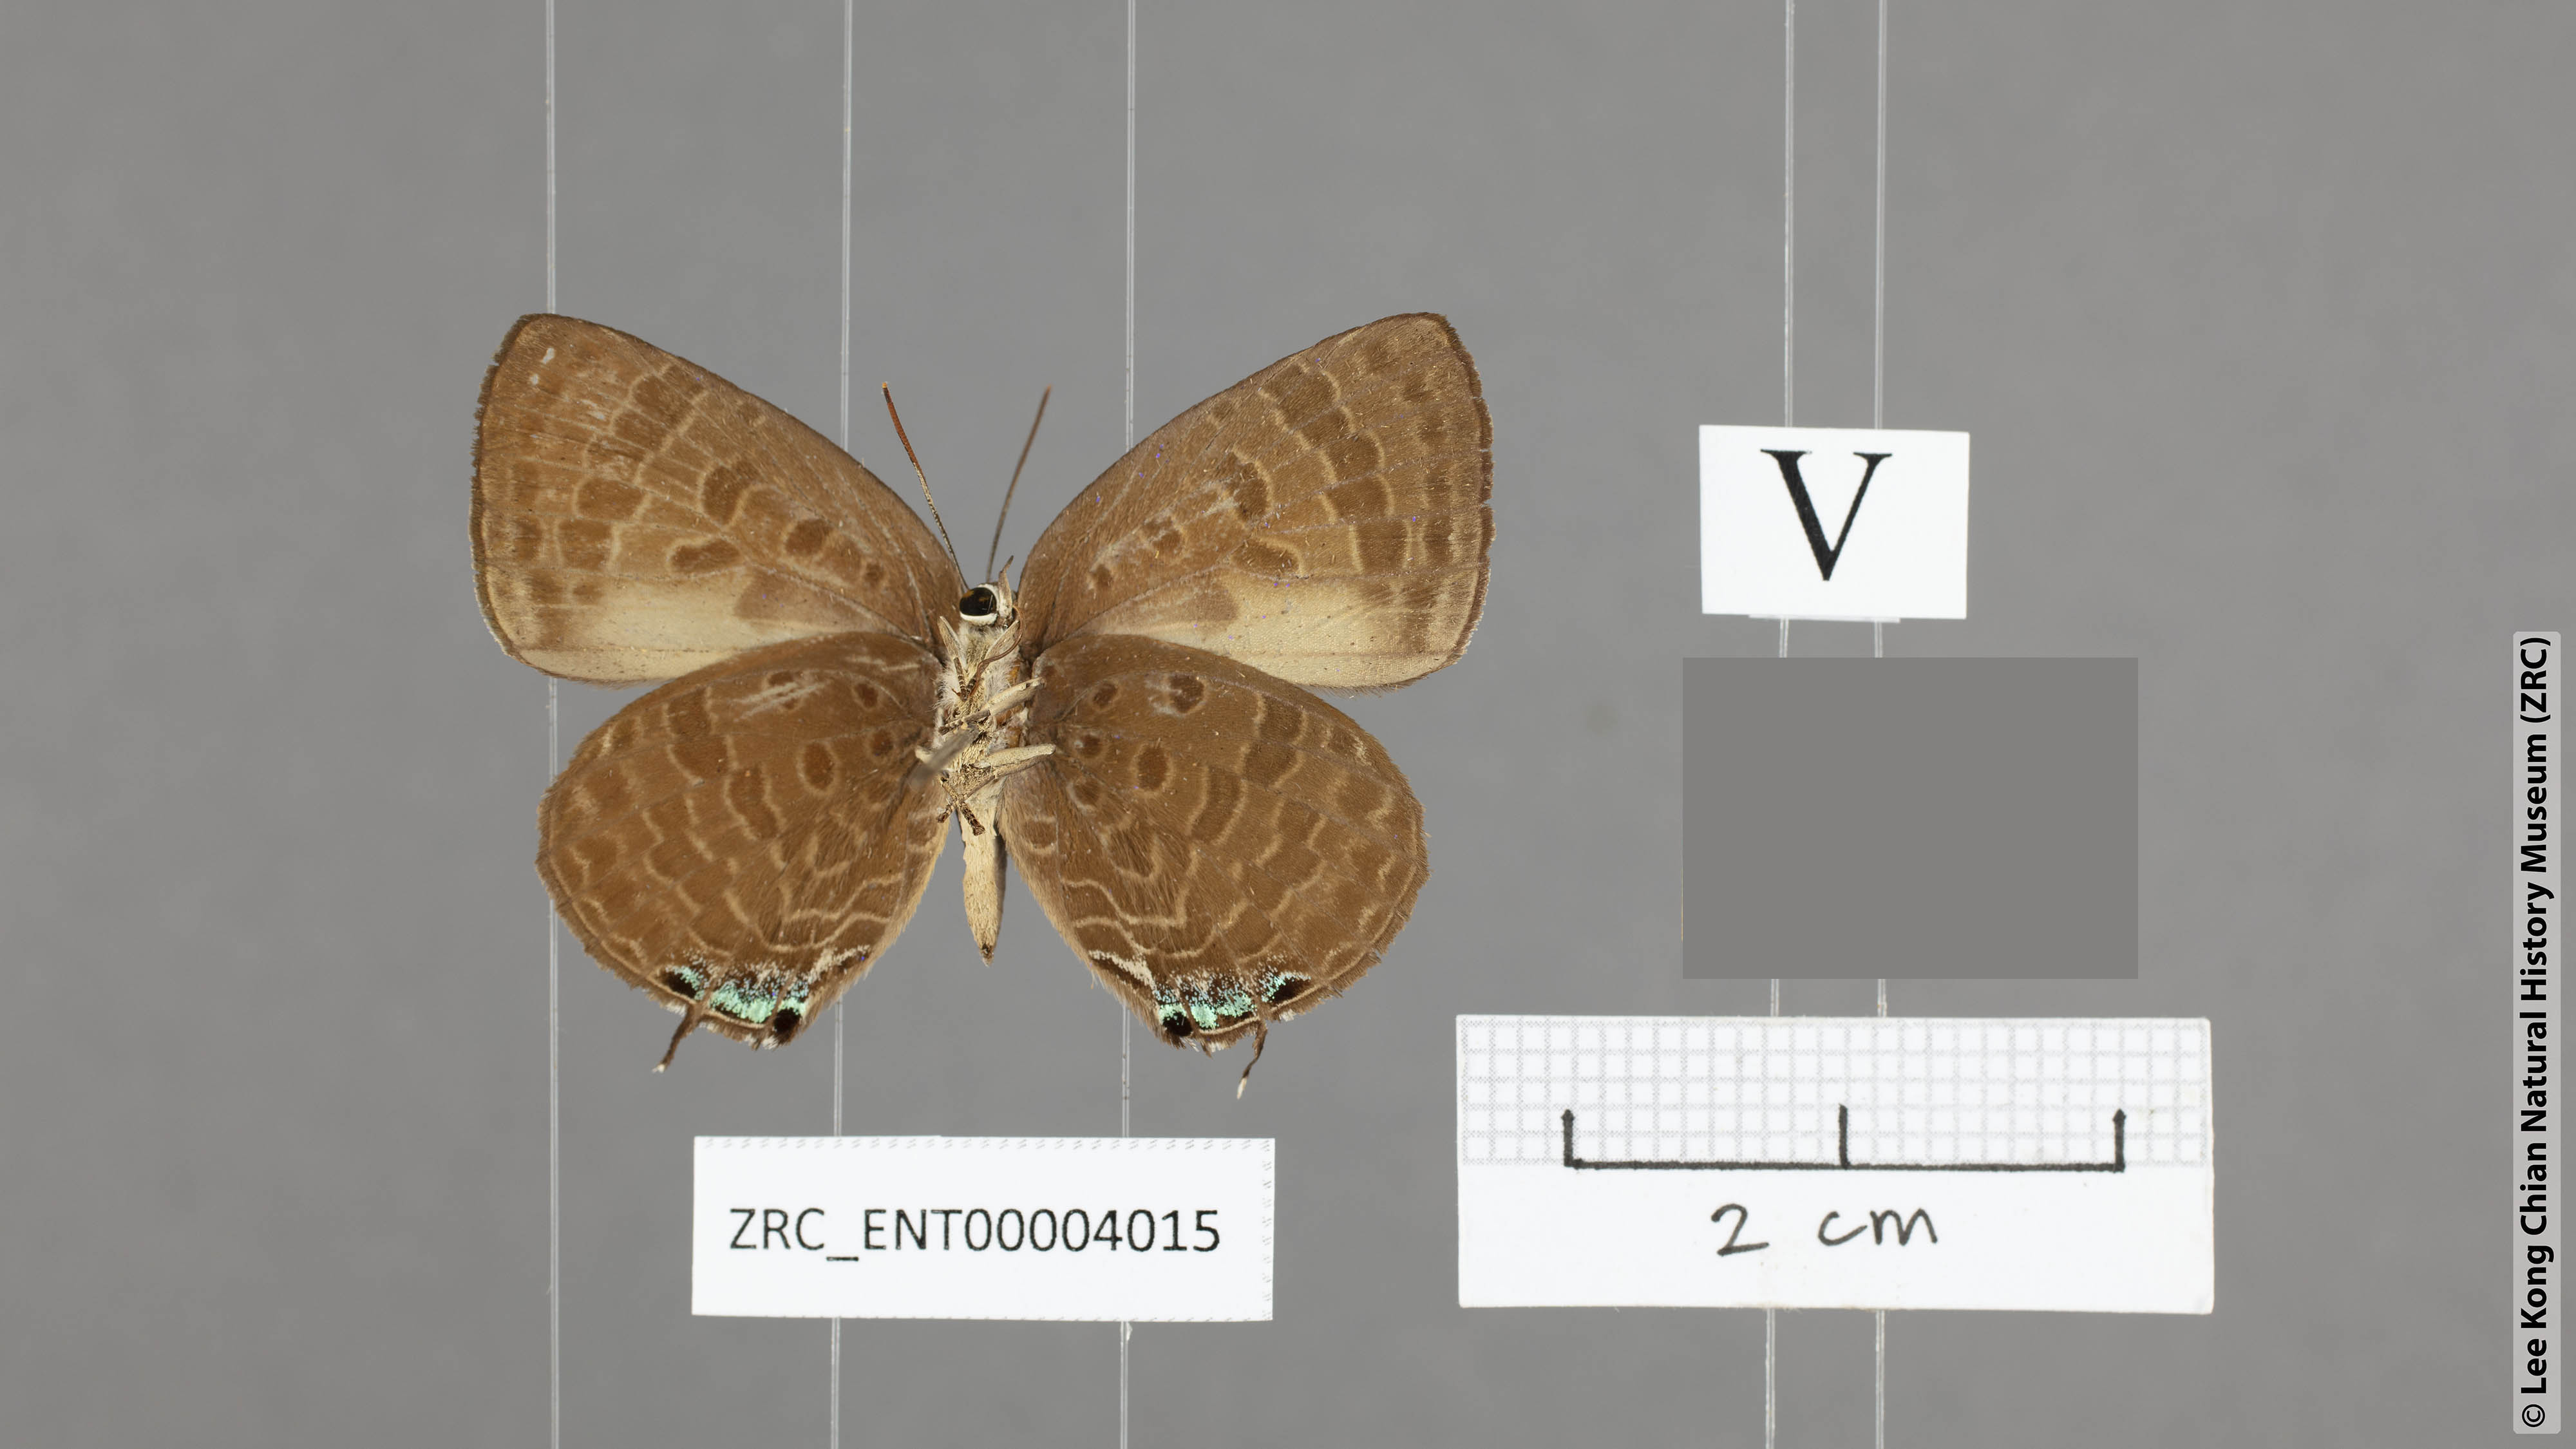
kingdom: Animalia
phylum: Arthropoda
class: Insecta
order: Lepidoptera
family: Lycaenidae
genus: Arhopala
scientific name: Arhopala overdijkinki
